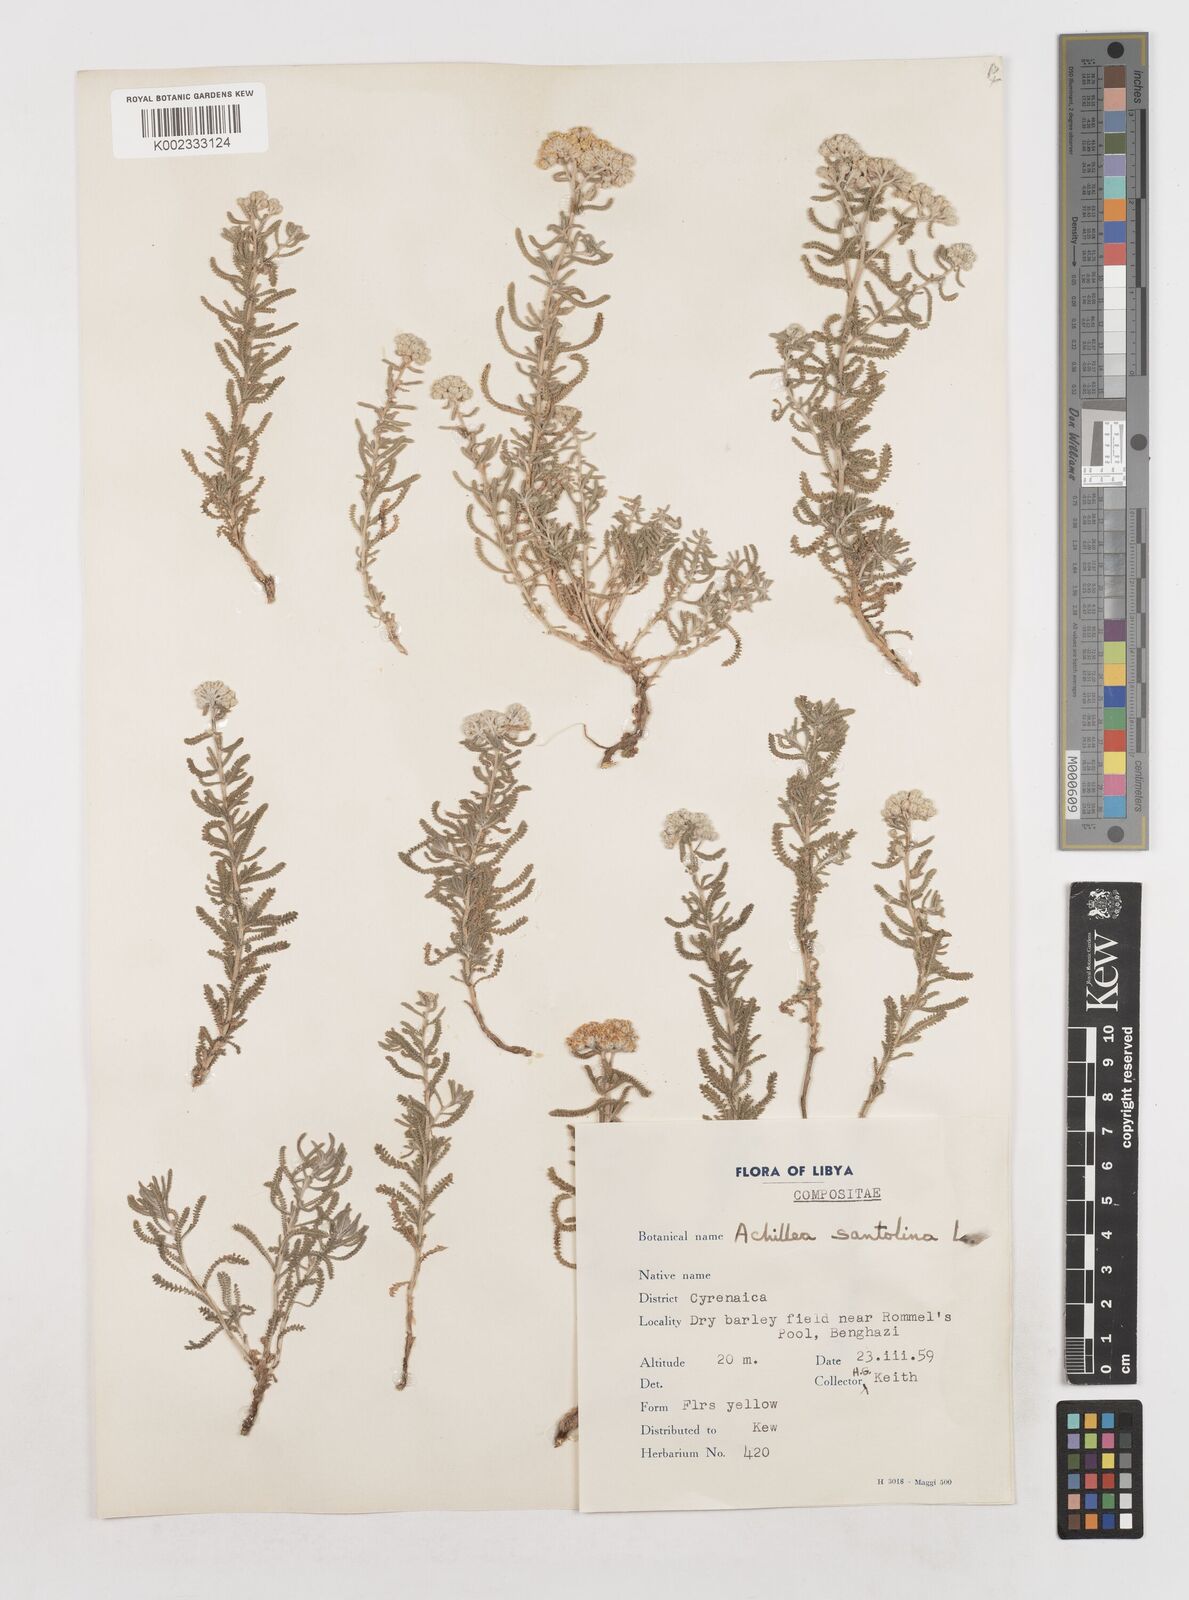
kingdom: Plantae
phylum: Tracheophyta
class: Magnoliopsida
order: Asterales
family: Asteraceae
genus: Achillea
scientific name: Achillea tenuifolia
